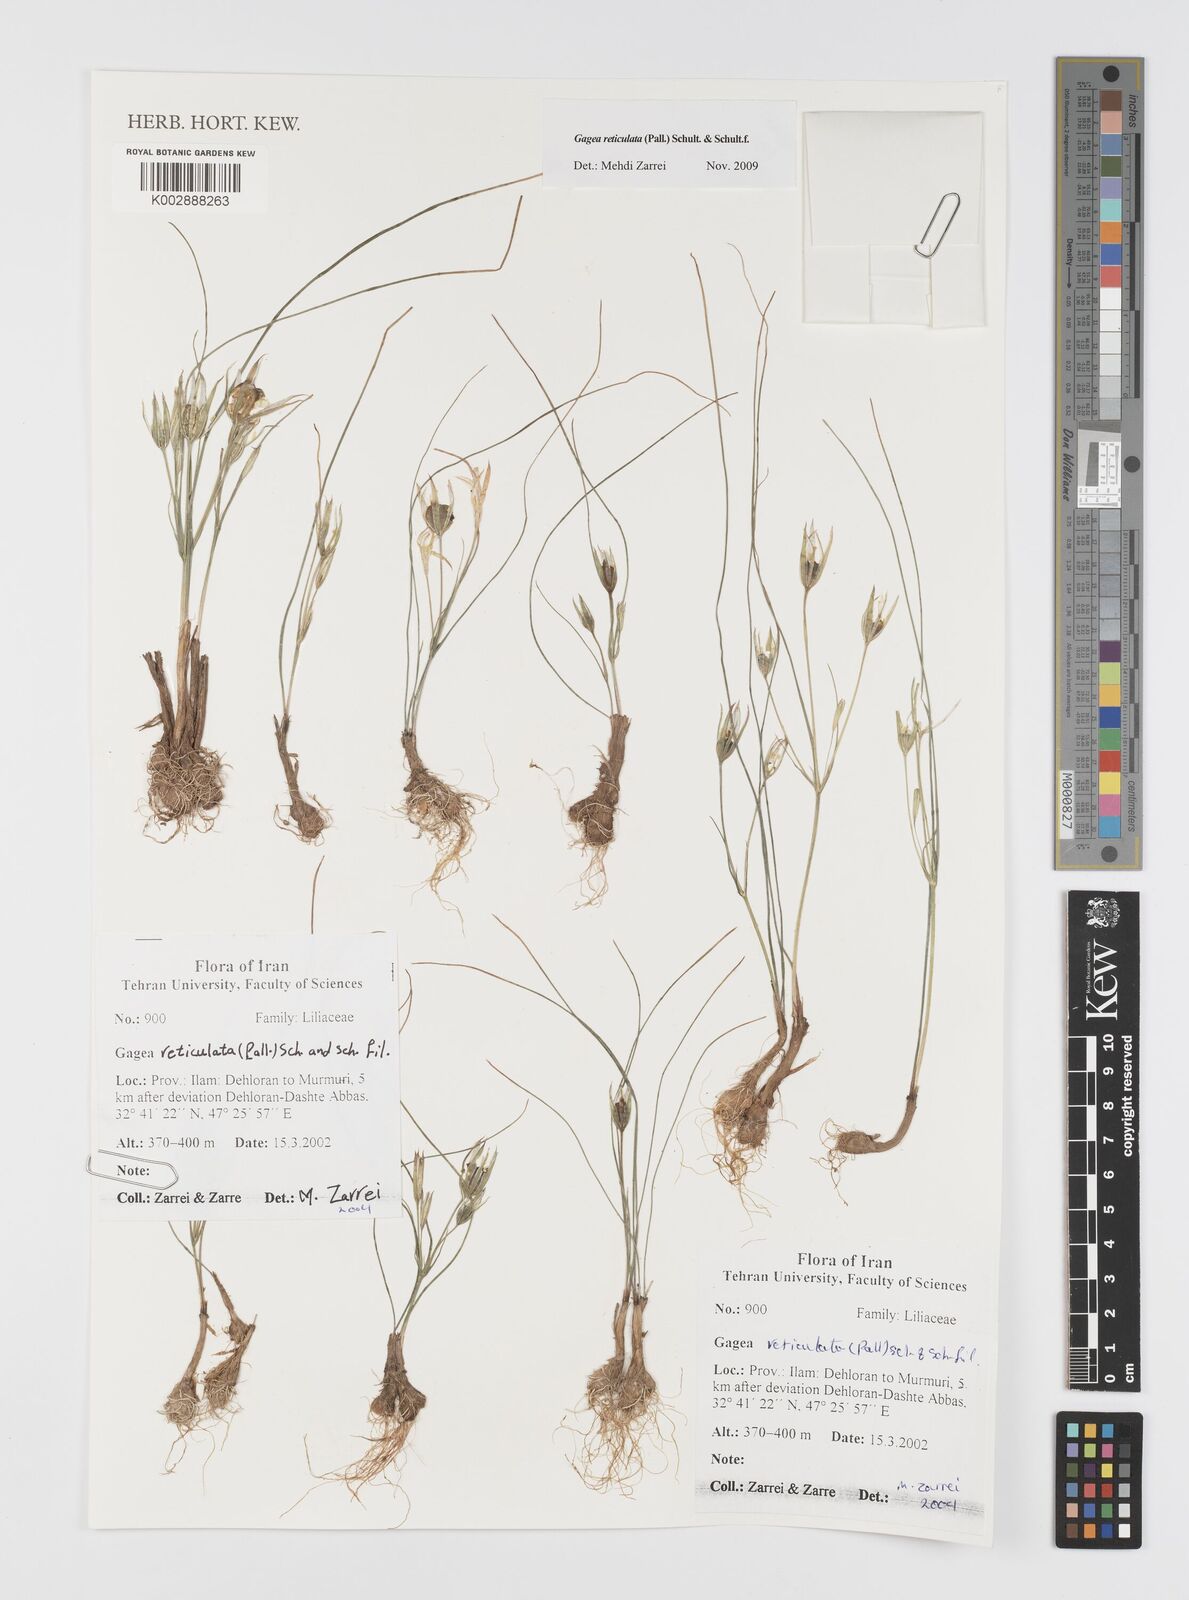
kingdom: Plantae
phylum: Tracheophyta
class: Liliopsida
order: Liliales
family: Liliaceae
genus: Gagea
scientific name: Gagea reticulata
